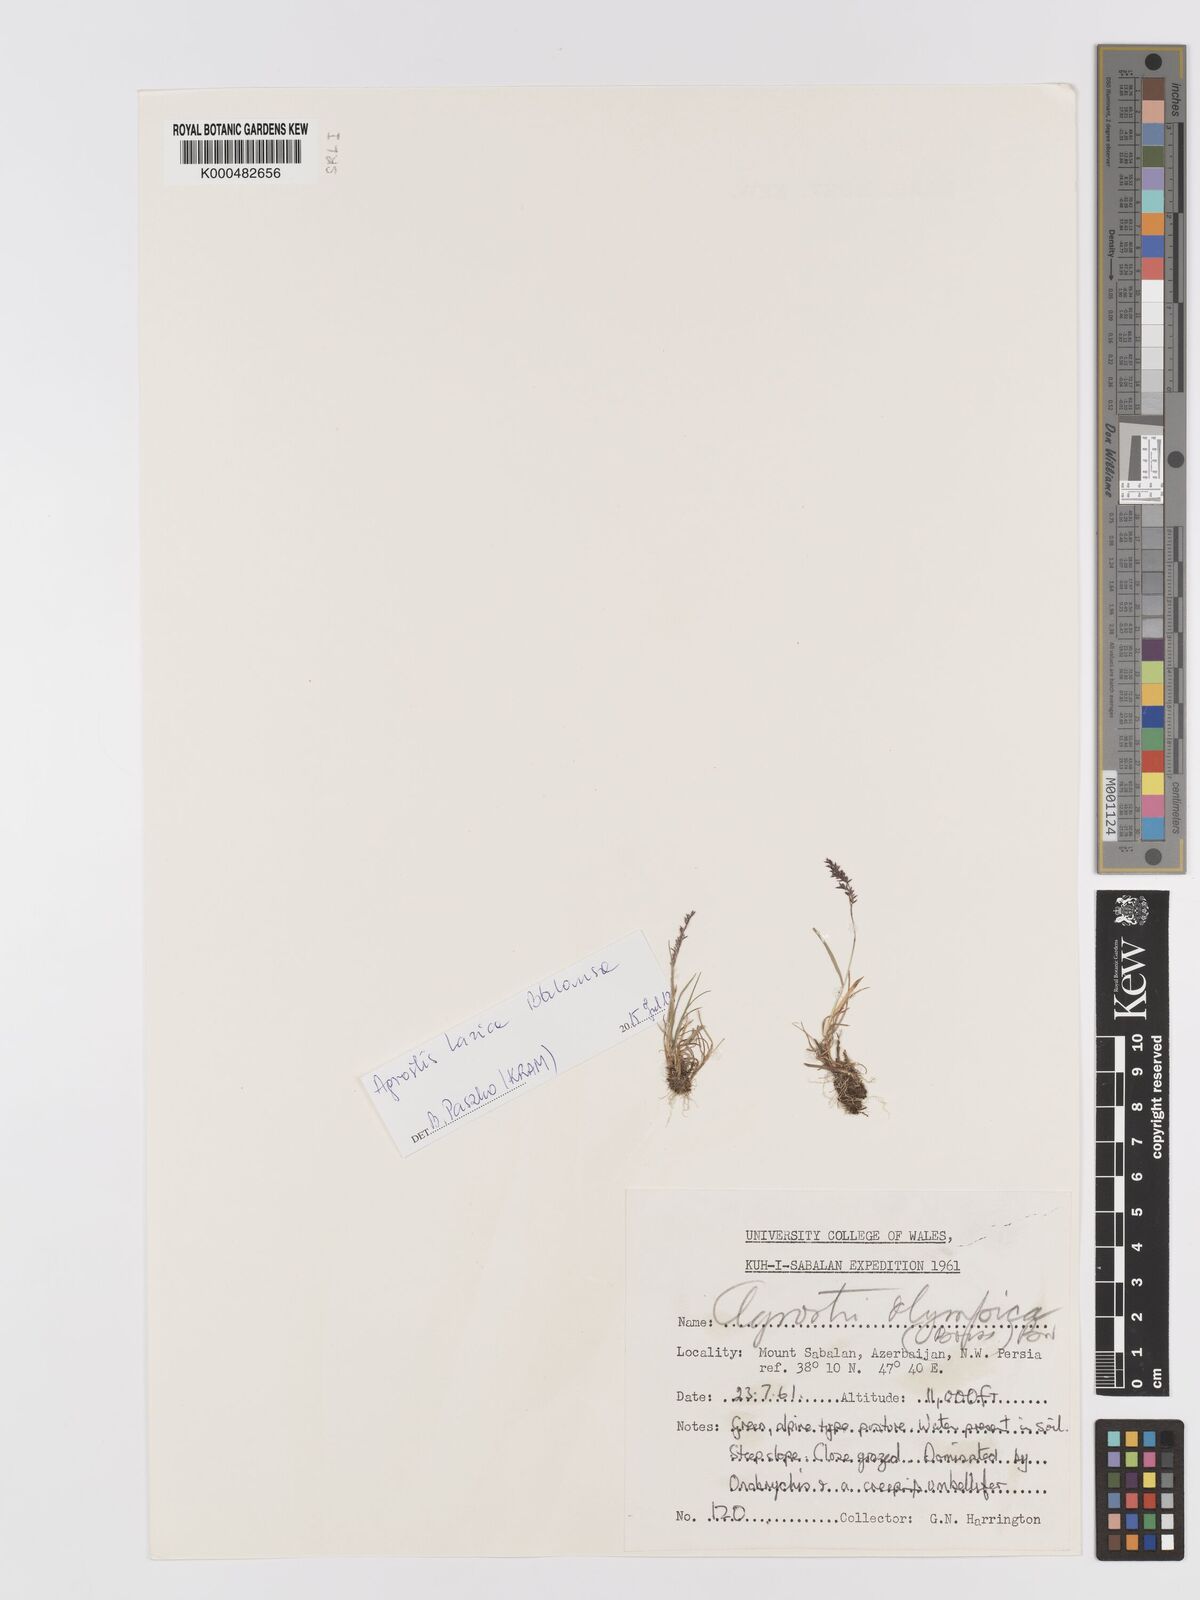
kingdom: Plantae
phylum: Tracheophyta
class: Liliopsida
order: Poales
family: Poaceae
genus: Agrostis
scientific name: Agrostis olympica
